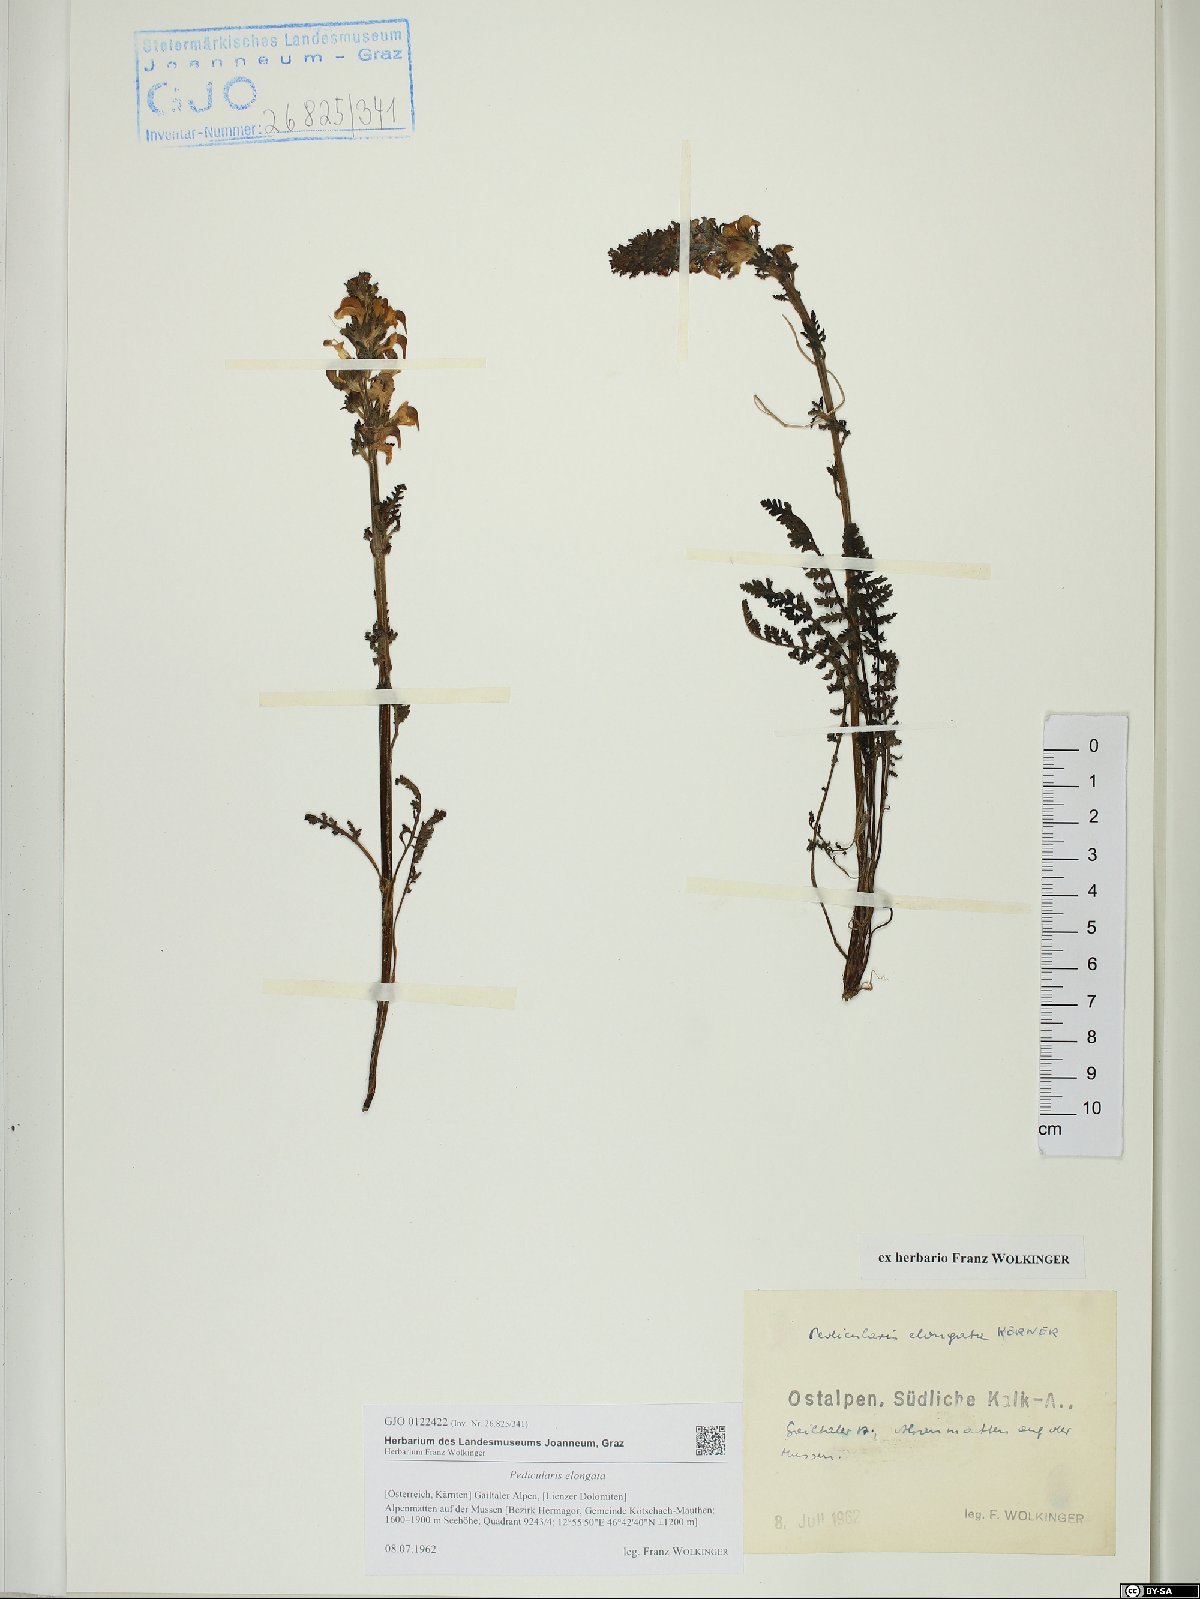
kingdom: Plantae
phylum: Tracheophyta
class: Magnoliopsida
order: Lamiales
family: Orobanchaceae
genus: Pedicularis
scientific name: Pedicularis elongata
